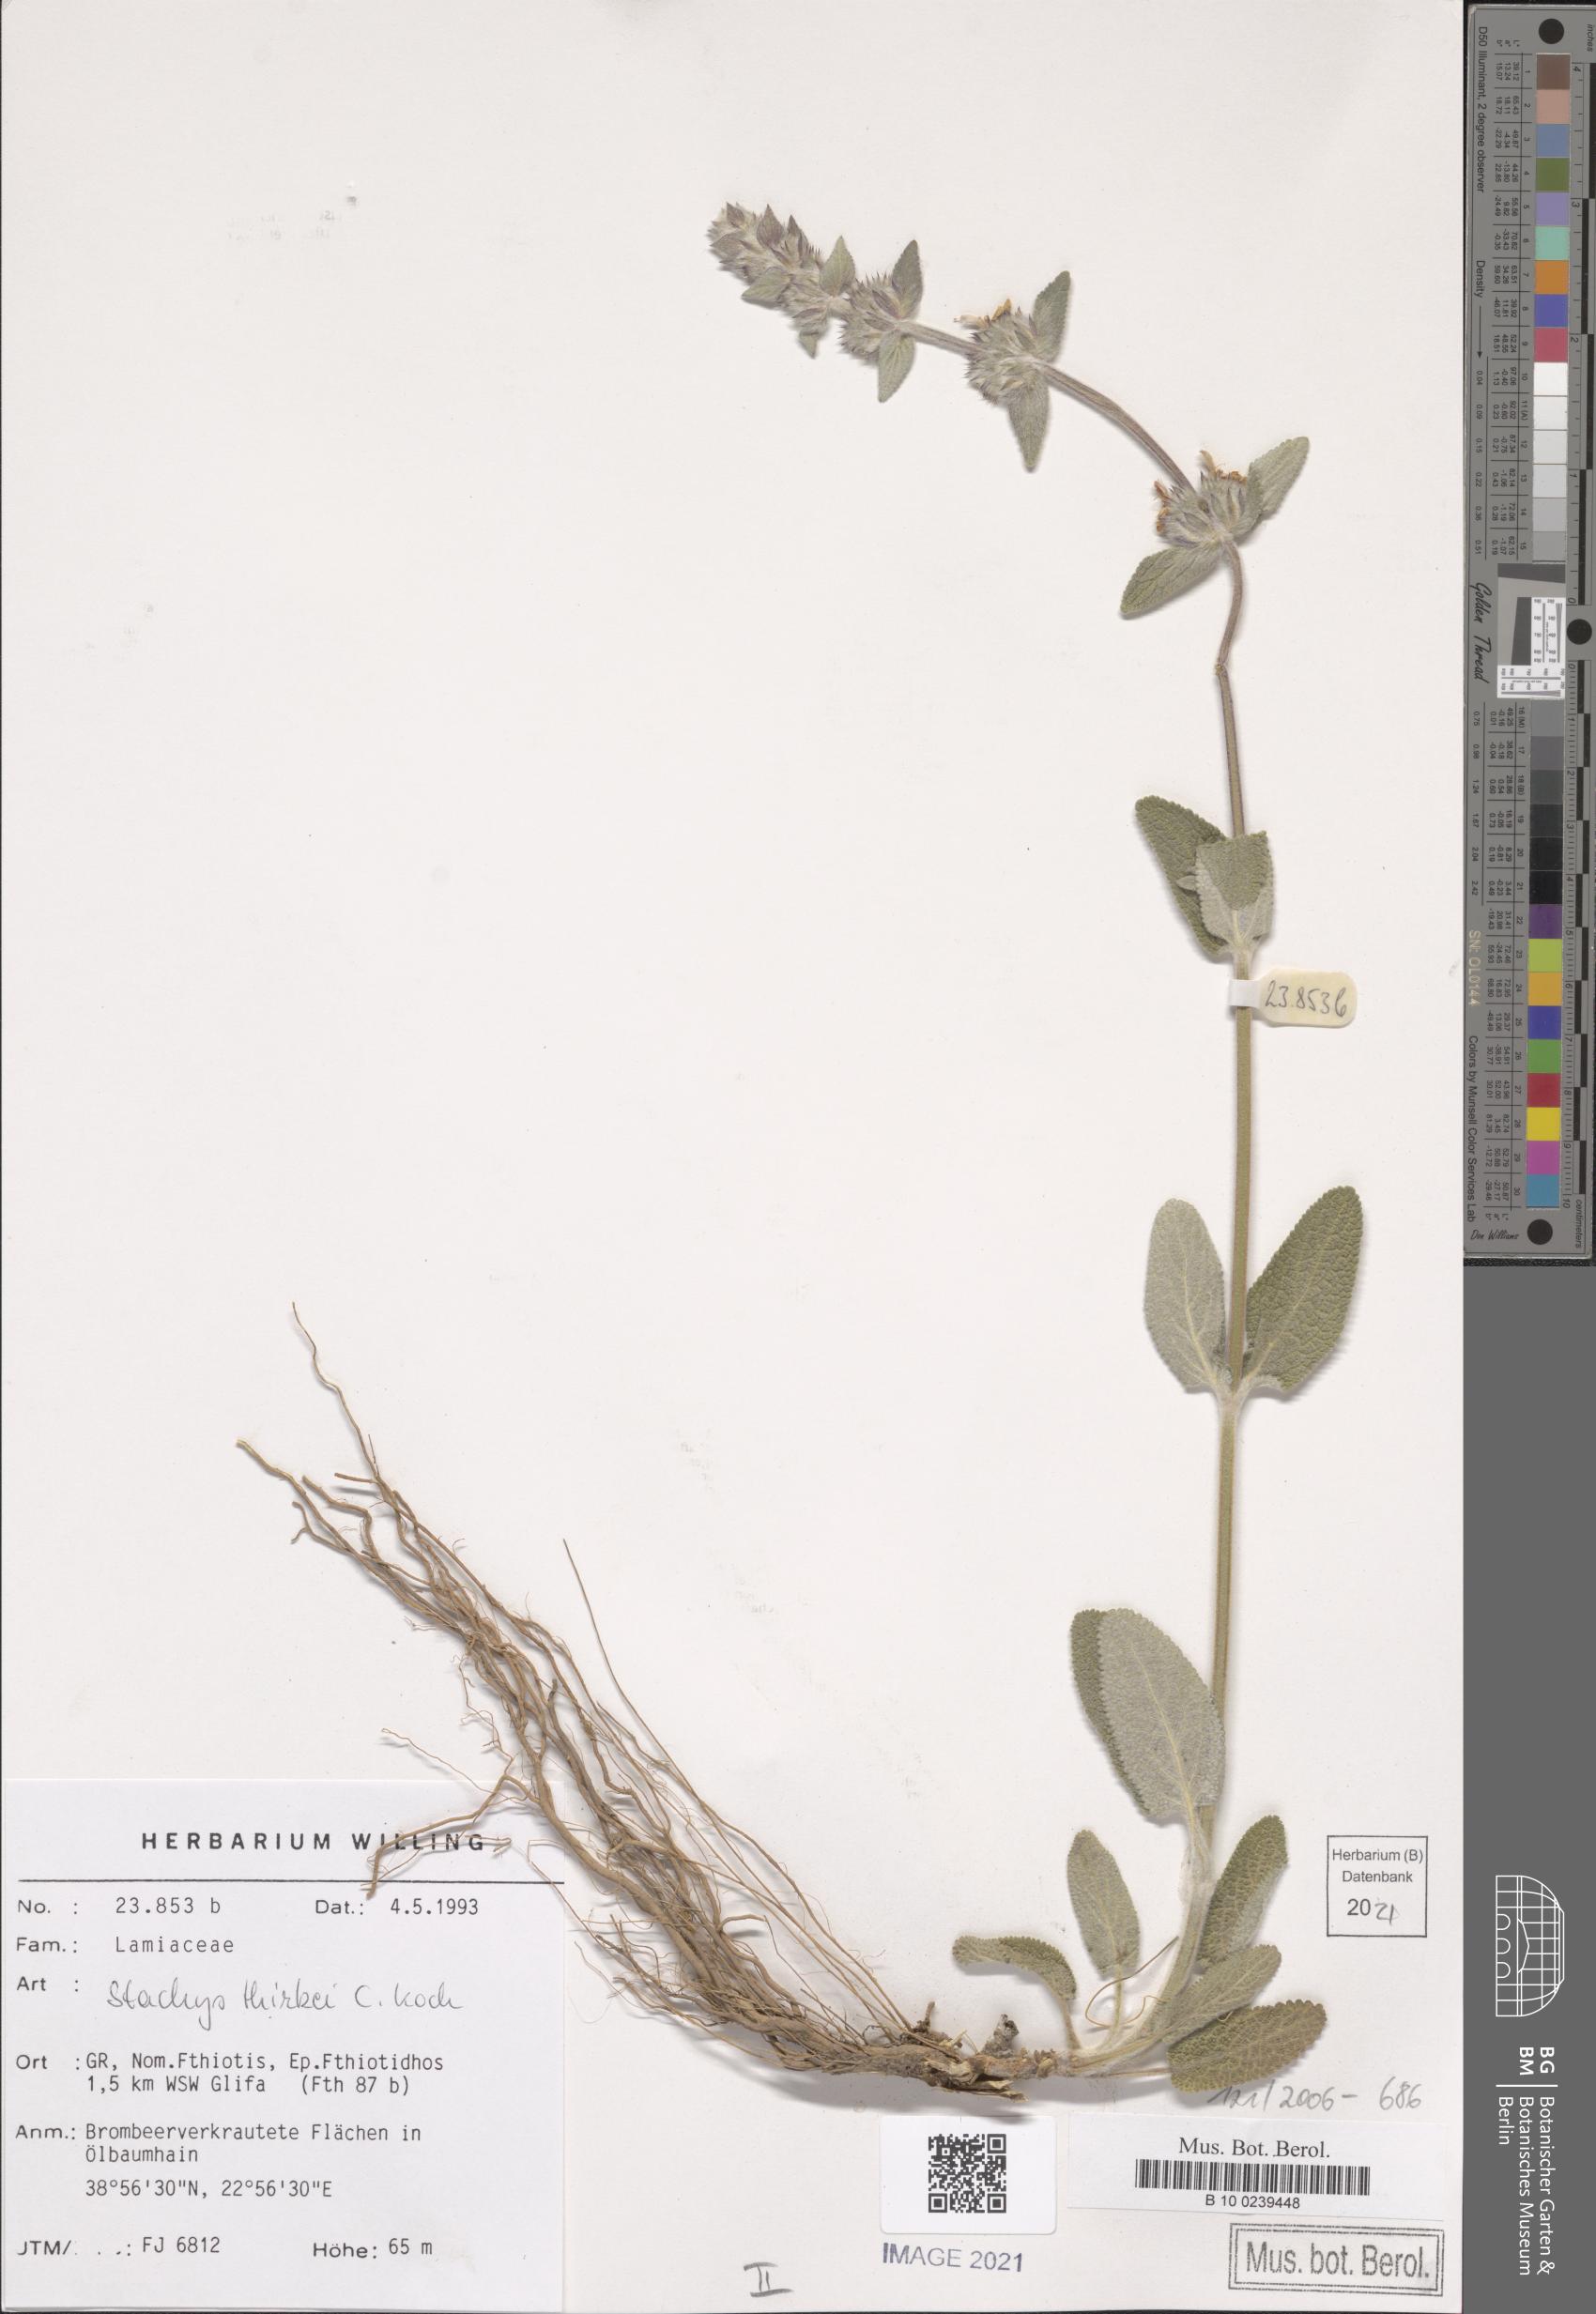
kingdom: Plantae
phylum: Tracheophyta
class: Magnoliopsida
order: Lamiales
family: Lamiaceae
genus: Stachys
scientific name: Stachys thirkei
